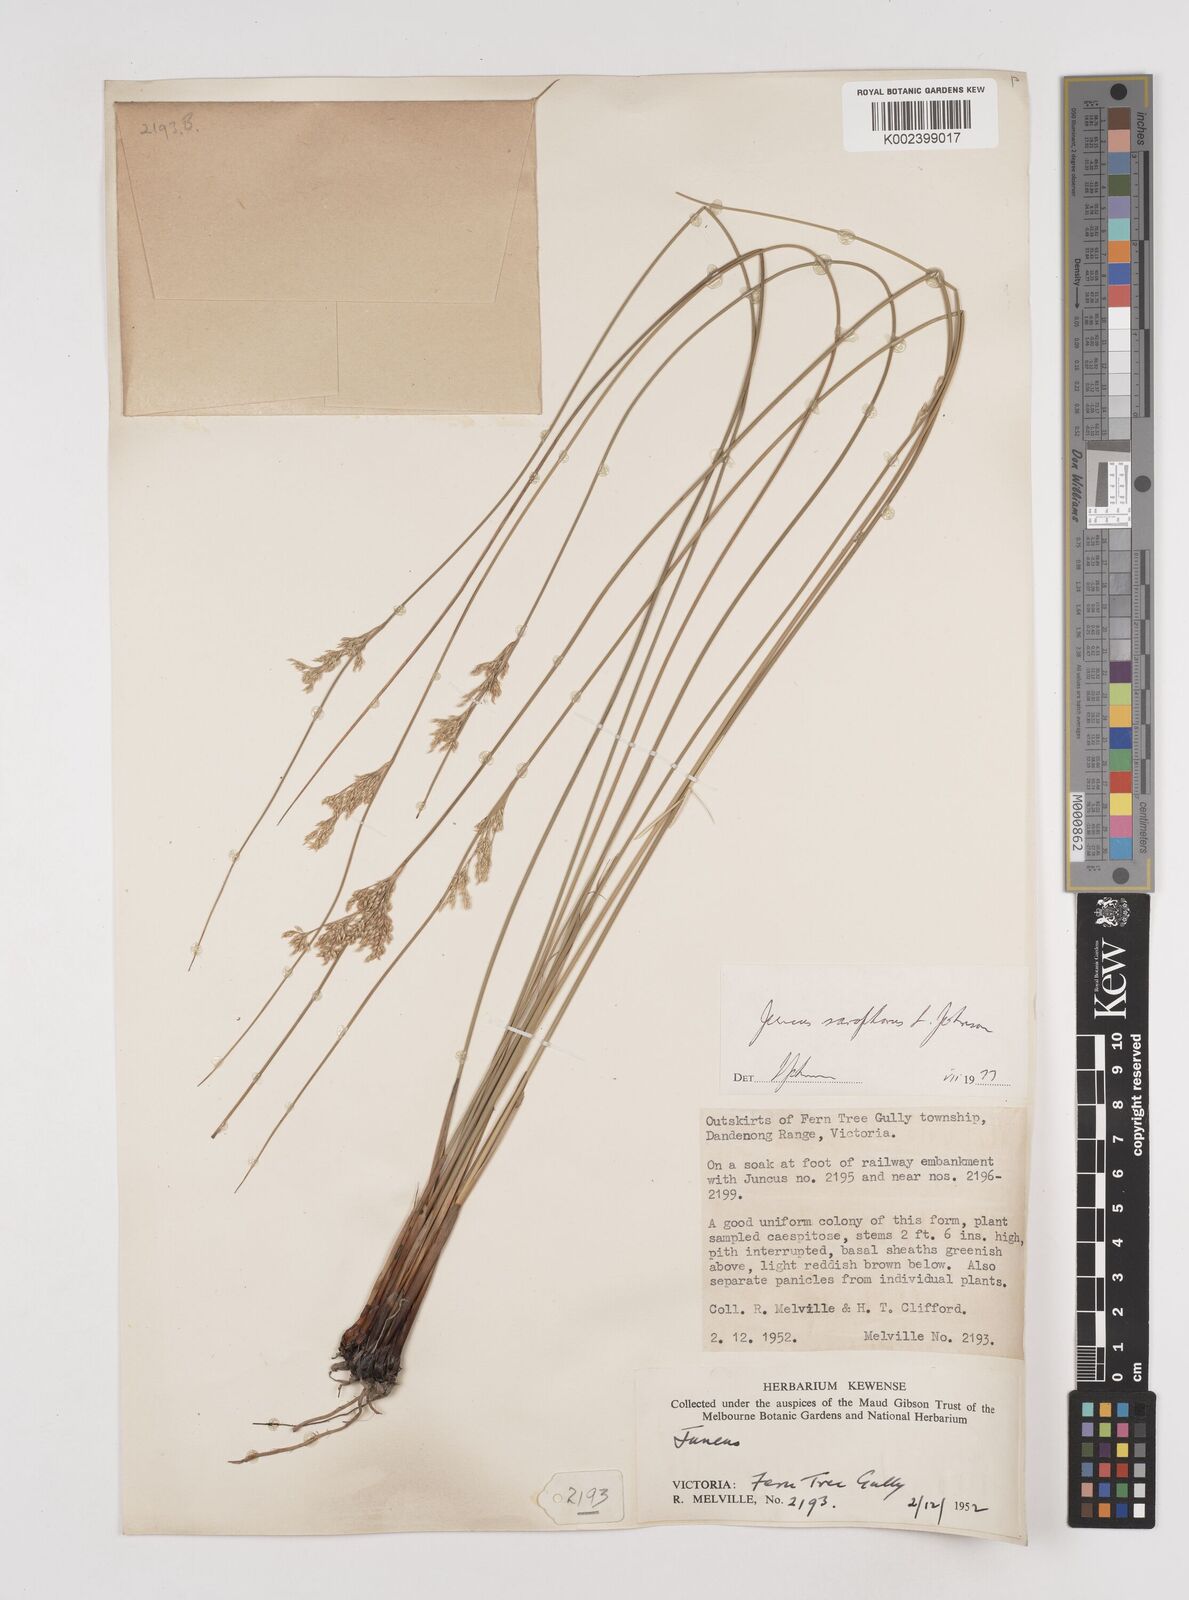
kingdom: Plantae
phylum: Tracheophyta
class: Liliopsida
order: Poales
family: Juncaceae
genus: Juncus
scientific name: Juncus sarophorus
